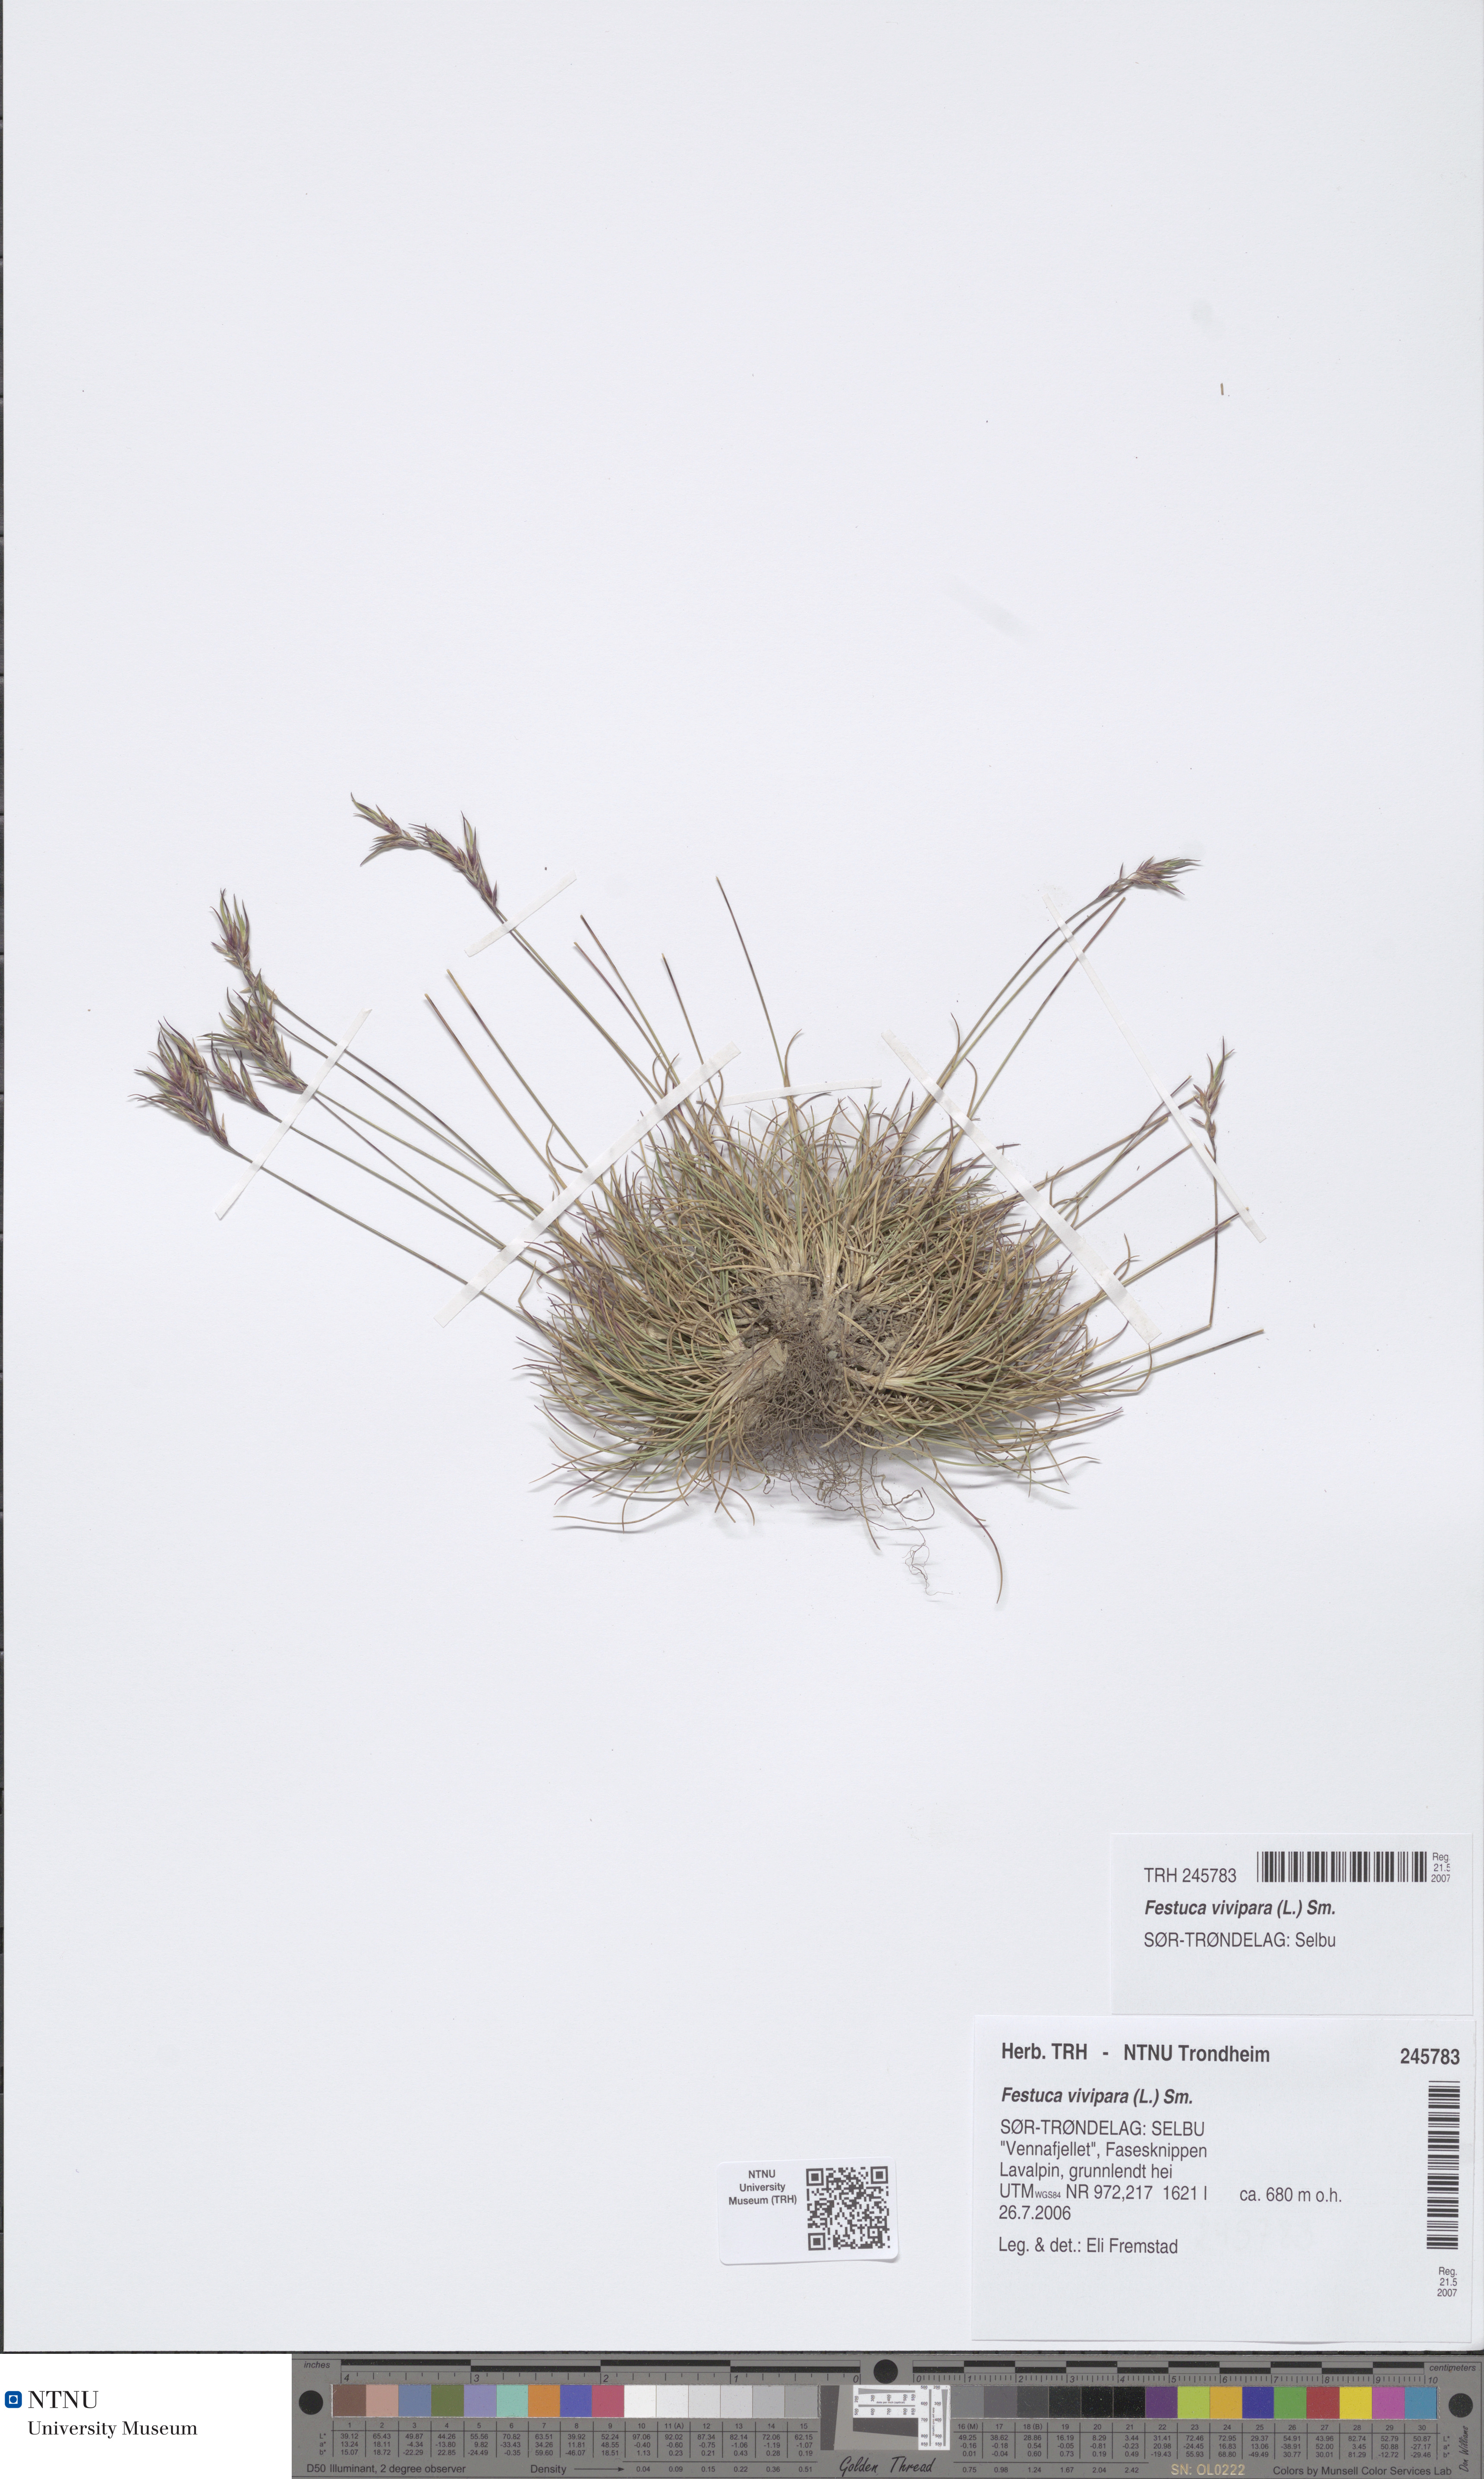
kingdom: Plantae
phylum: Tracheophyta
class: Liliopsida
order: Poales
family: Poaceae
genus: Festuca
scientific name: Festuca vivipara
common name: Viviparous sheep's-fescue
